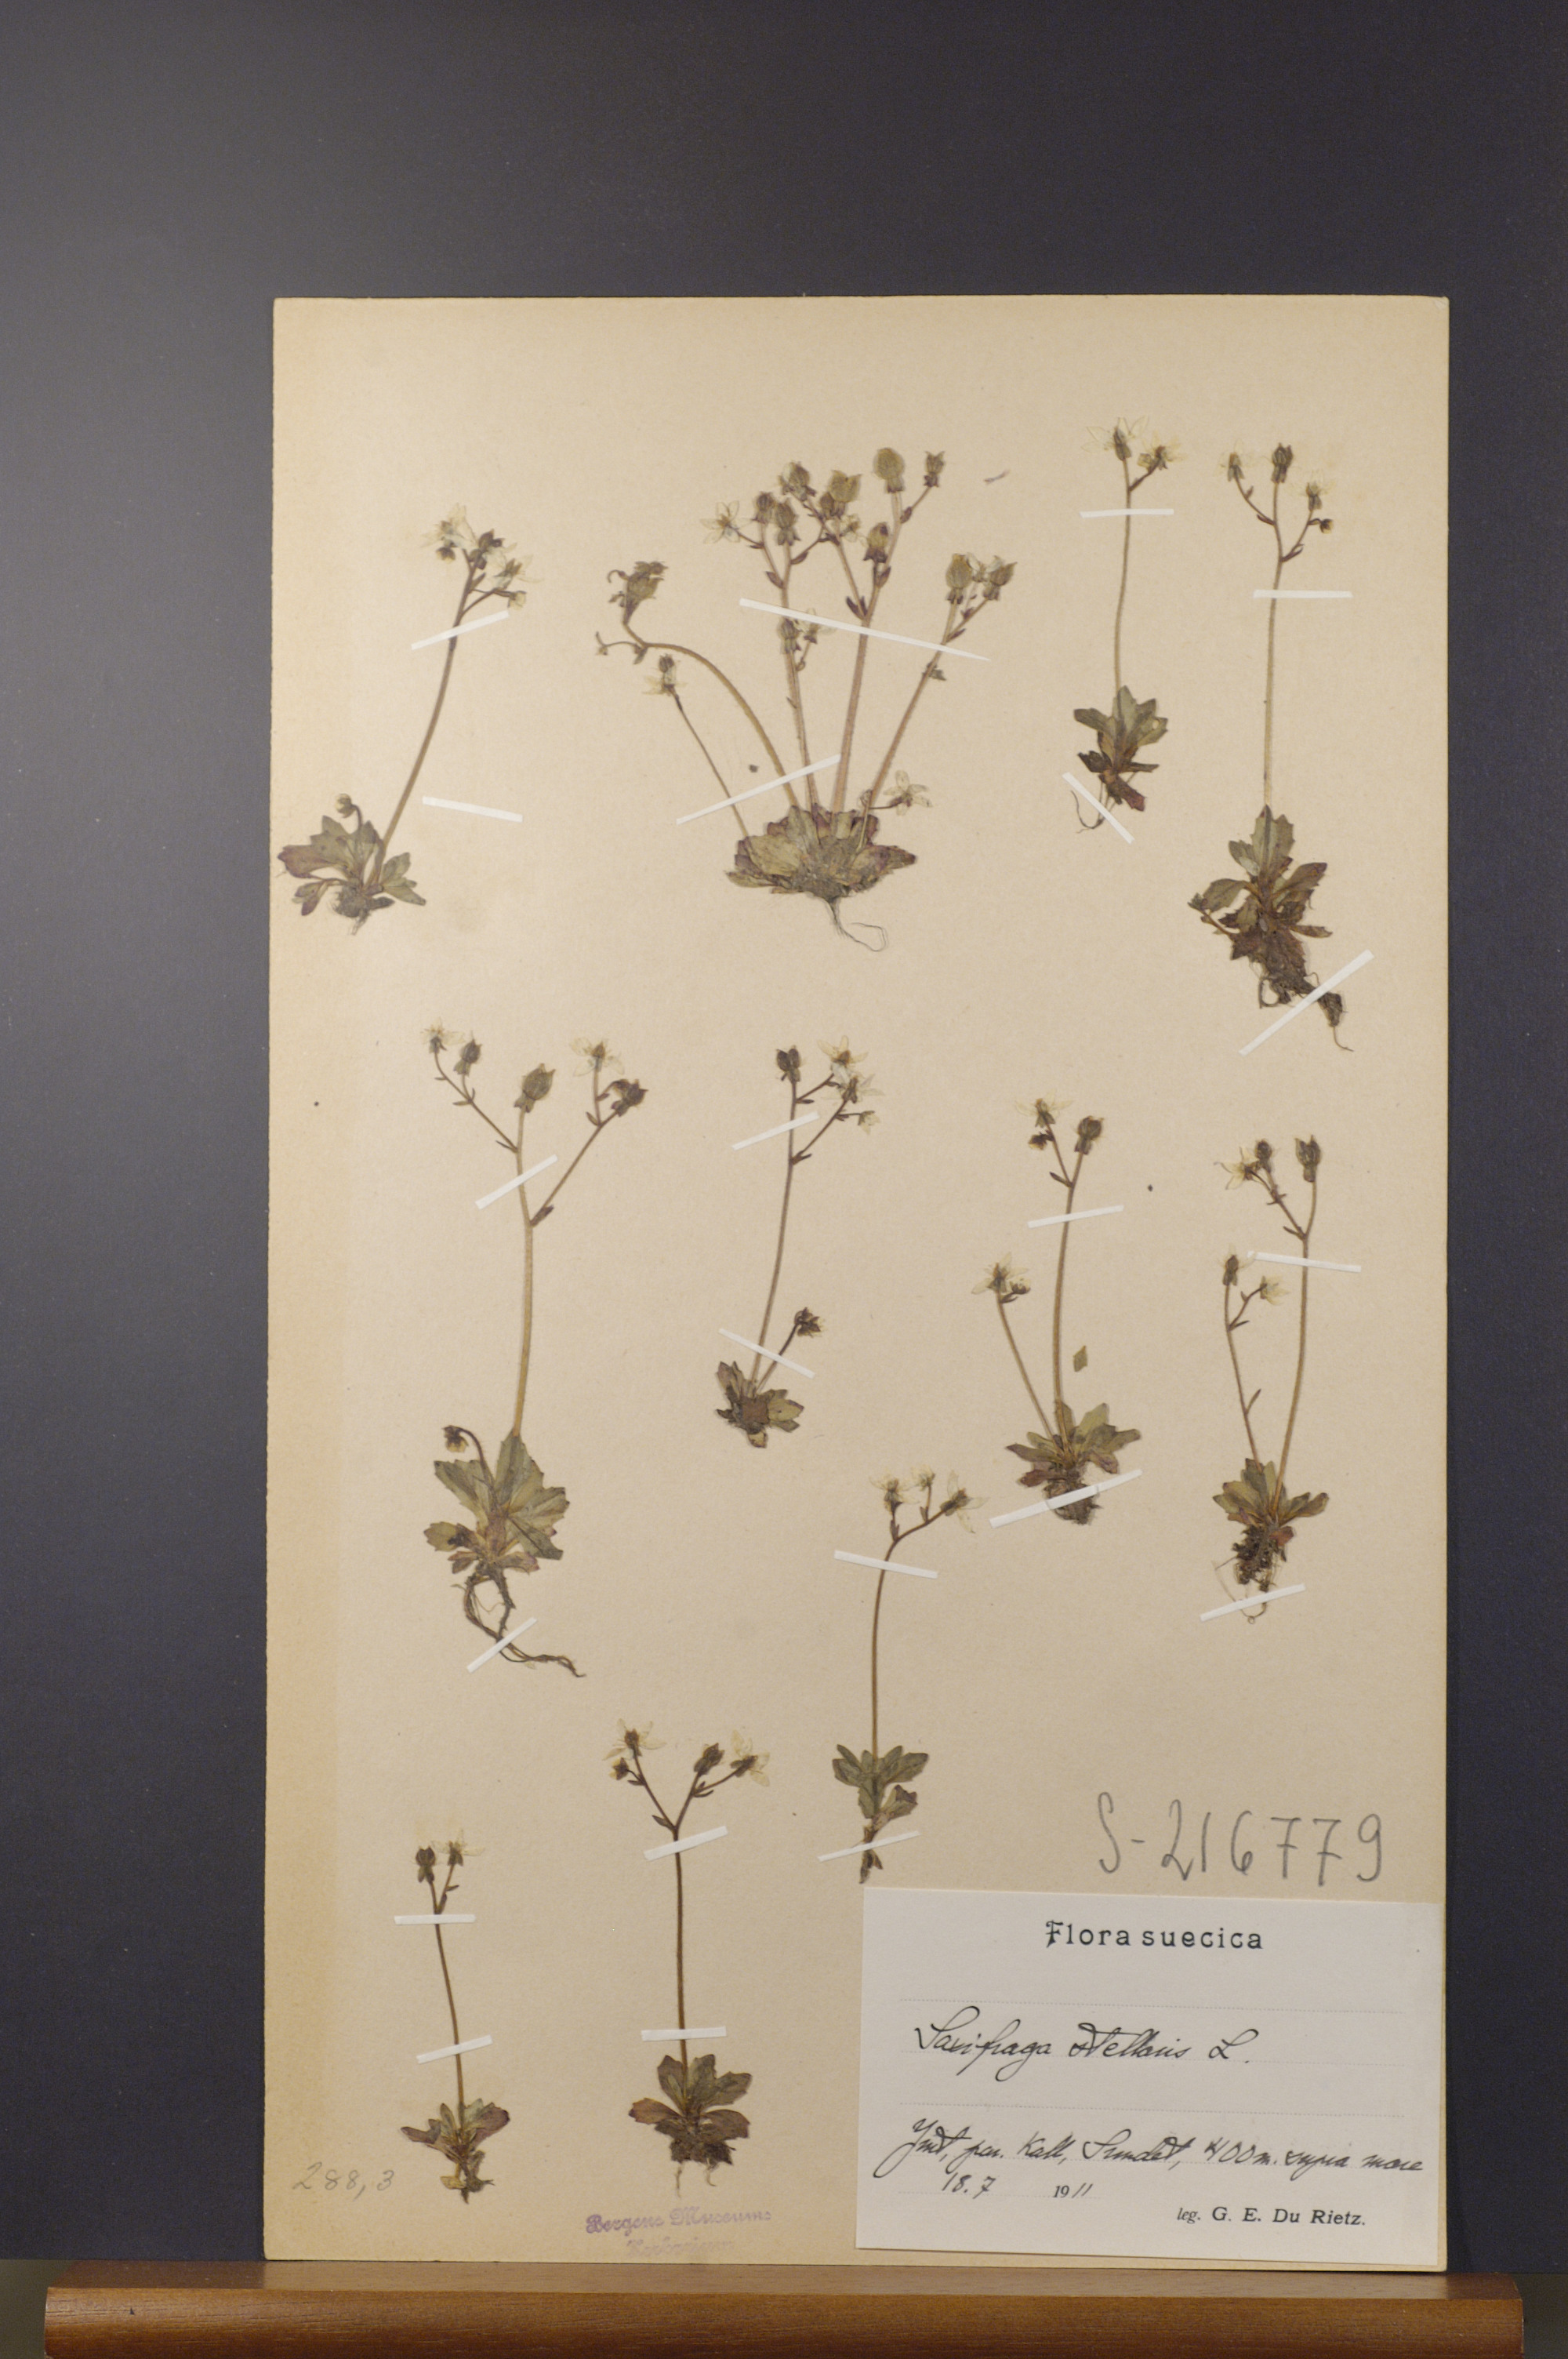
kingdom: Plantae
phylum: Tracheophyta
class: Magnoliopsida
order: Saxifragales
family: Saxifragaceae
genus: Micranthes
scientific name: Micranthes stellaris
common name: Starry saxifrage
